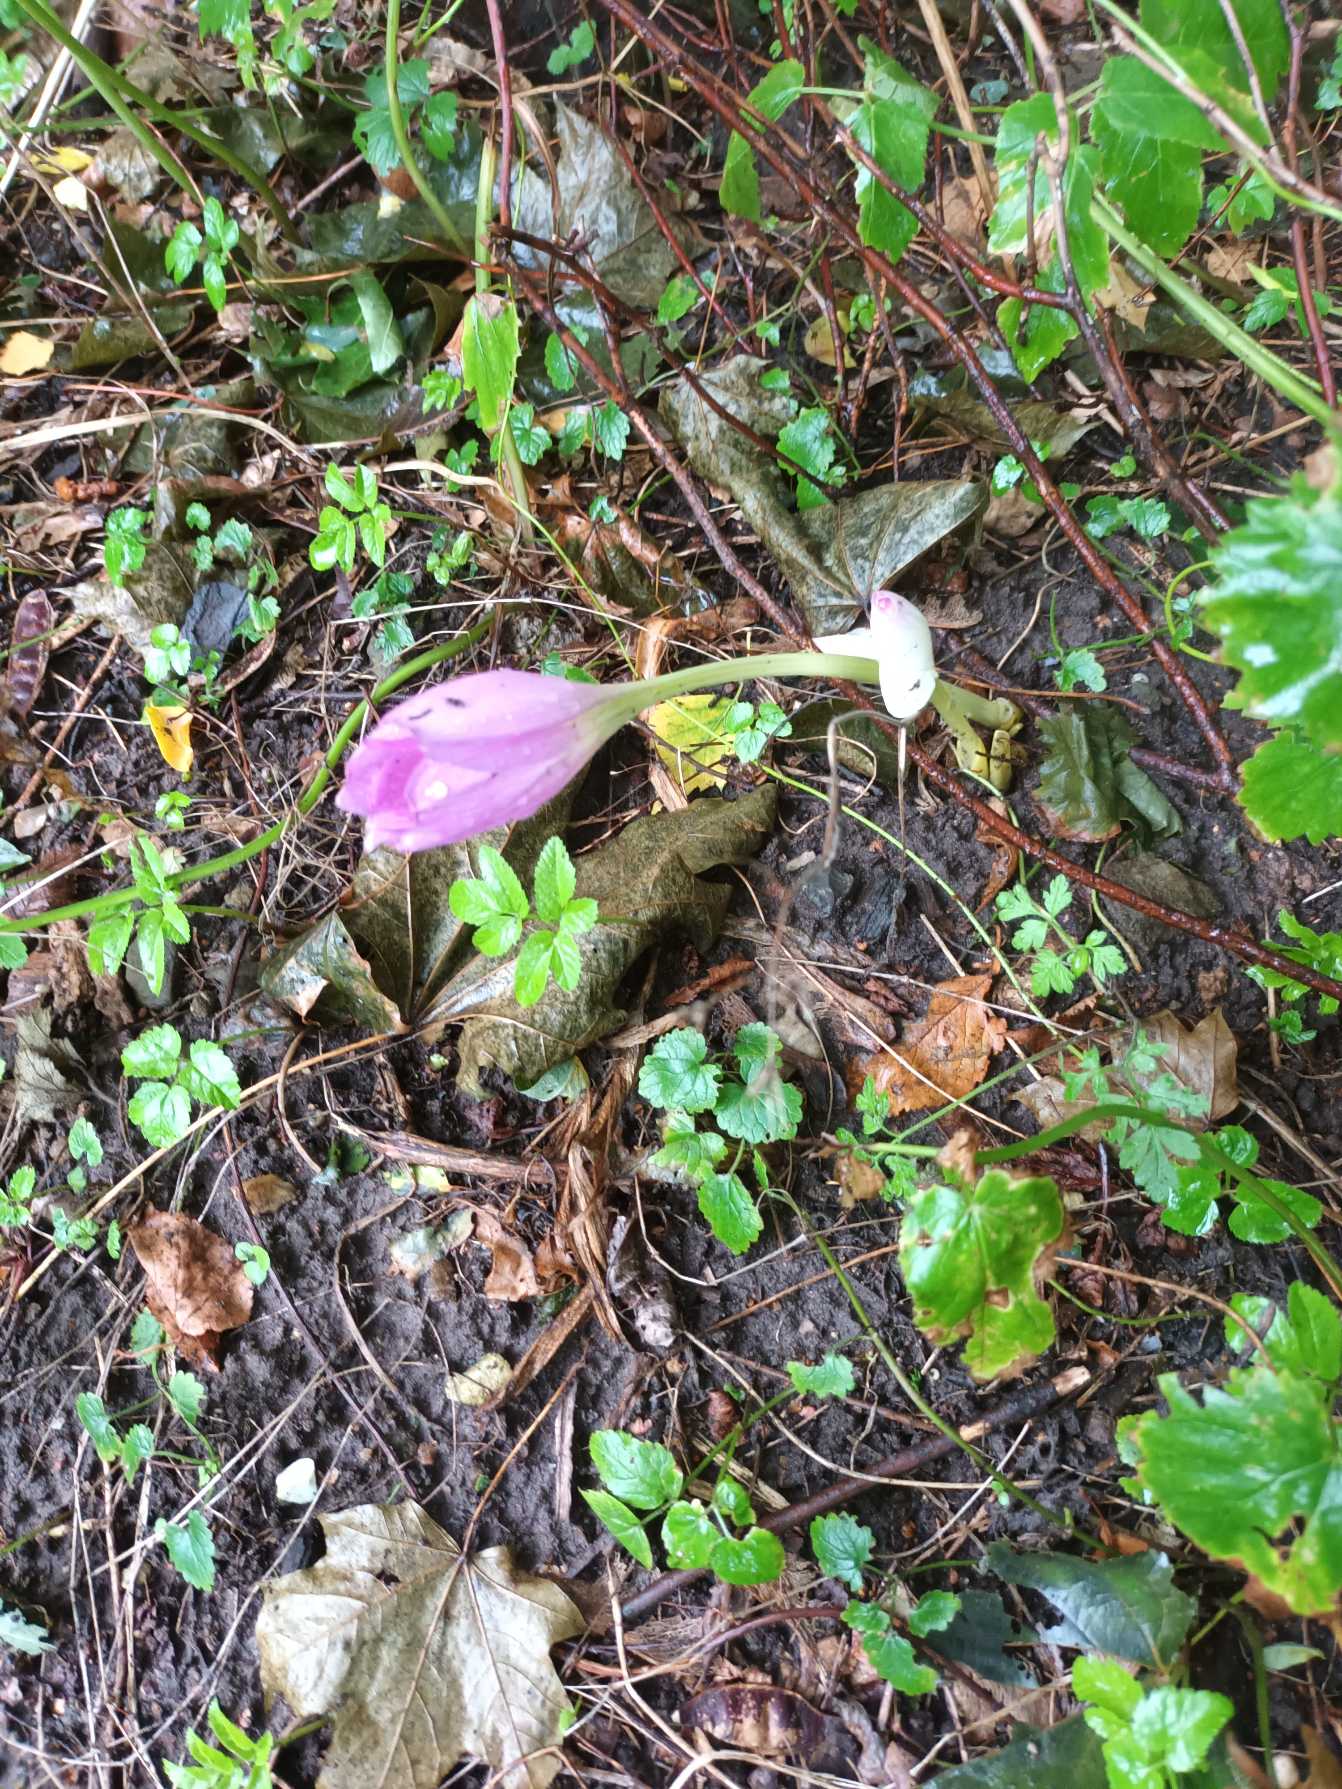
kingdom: Plantae
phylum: Tracheophyta
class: Liliopsida
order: Liliales
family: Colchicaceae
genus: Colchicum
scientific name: Colchicum autumnale
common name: Høst-tidløs
